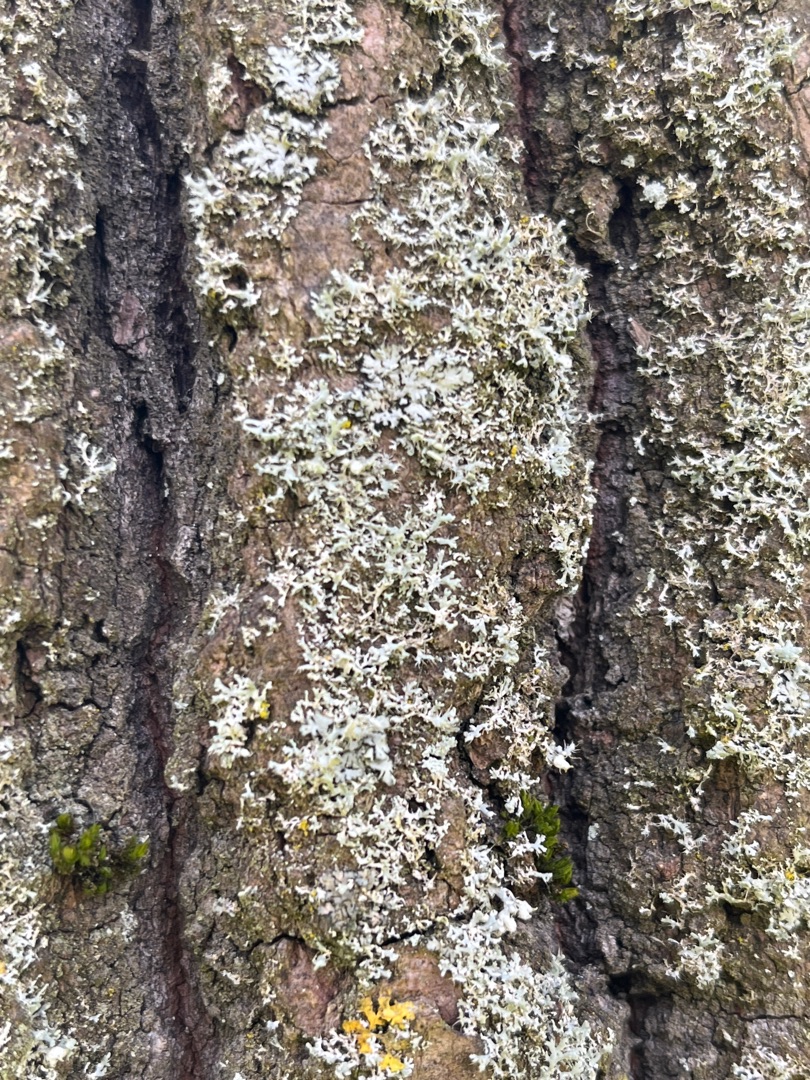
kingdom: Fungi
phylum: Ascomycota
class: Lecanoromycetes
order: Caliciales
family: Physciaceae
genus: Physcia
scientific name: Physcia tenella
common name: Spæd rosetlav
